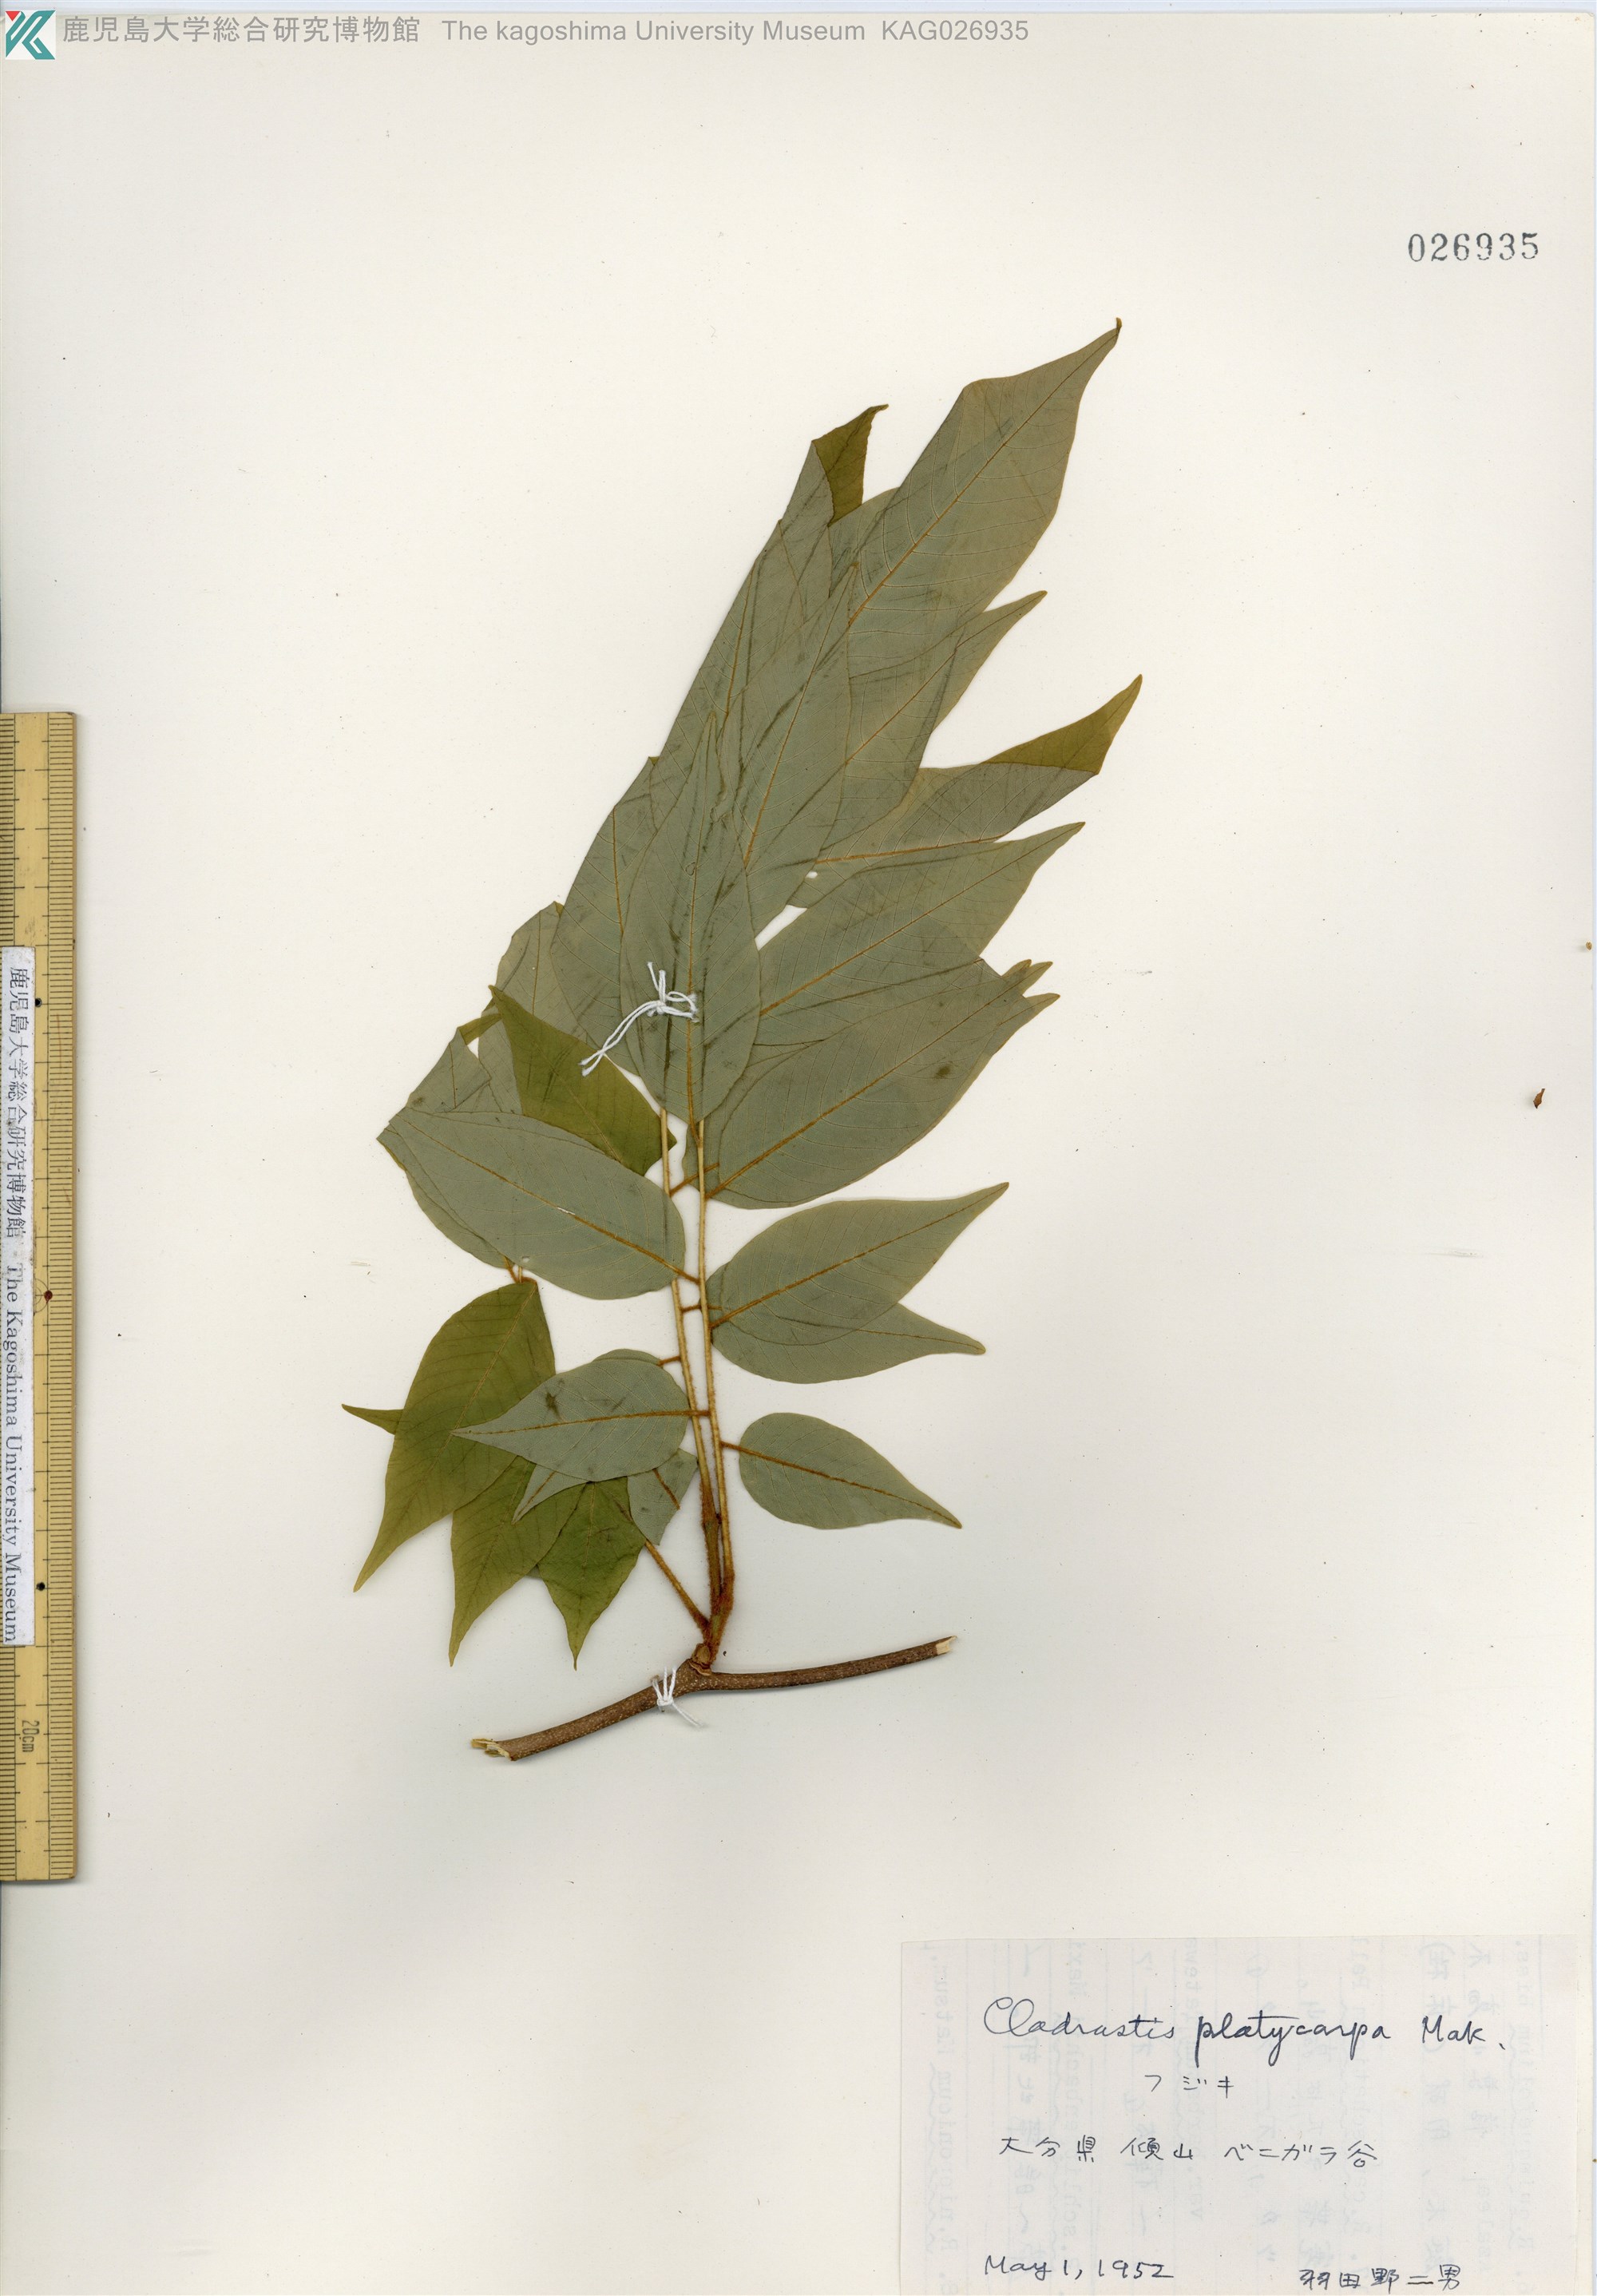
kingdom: Plantae
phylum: Tracheophyta
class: Magnoliopsida
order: Fabales
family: Fabaceae
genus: Platyosprion
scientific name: Platyosprion platycarpum
